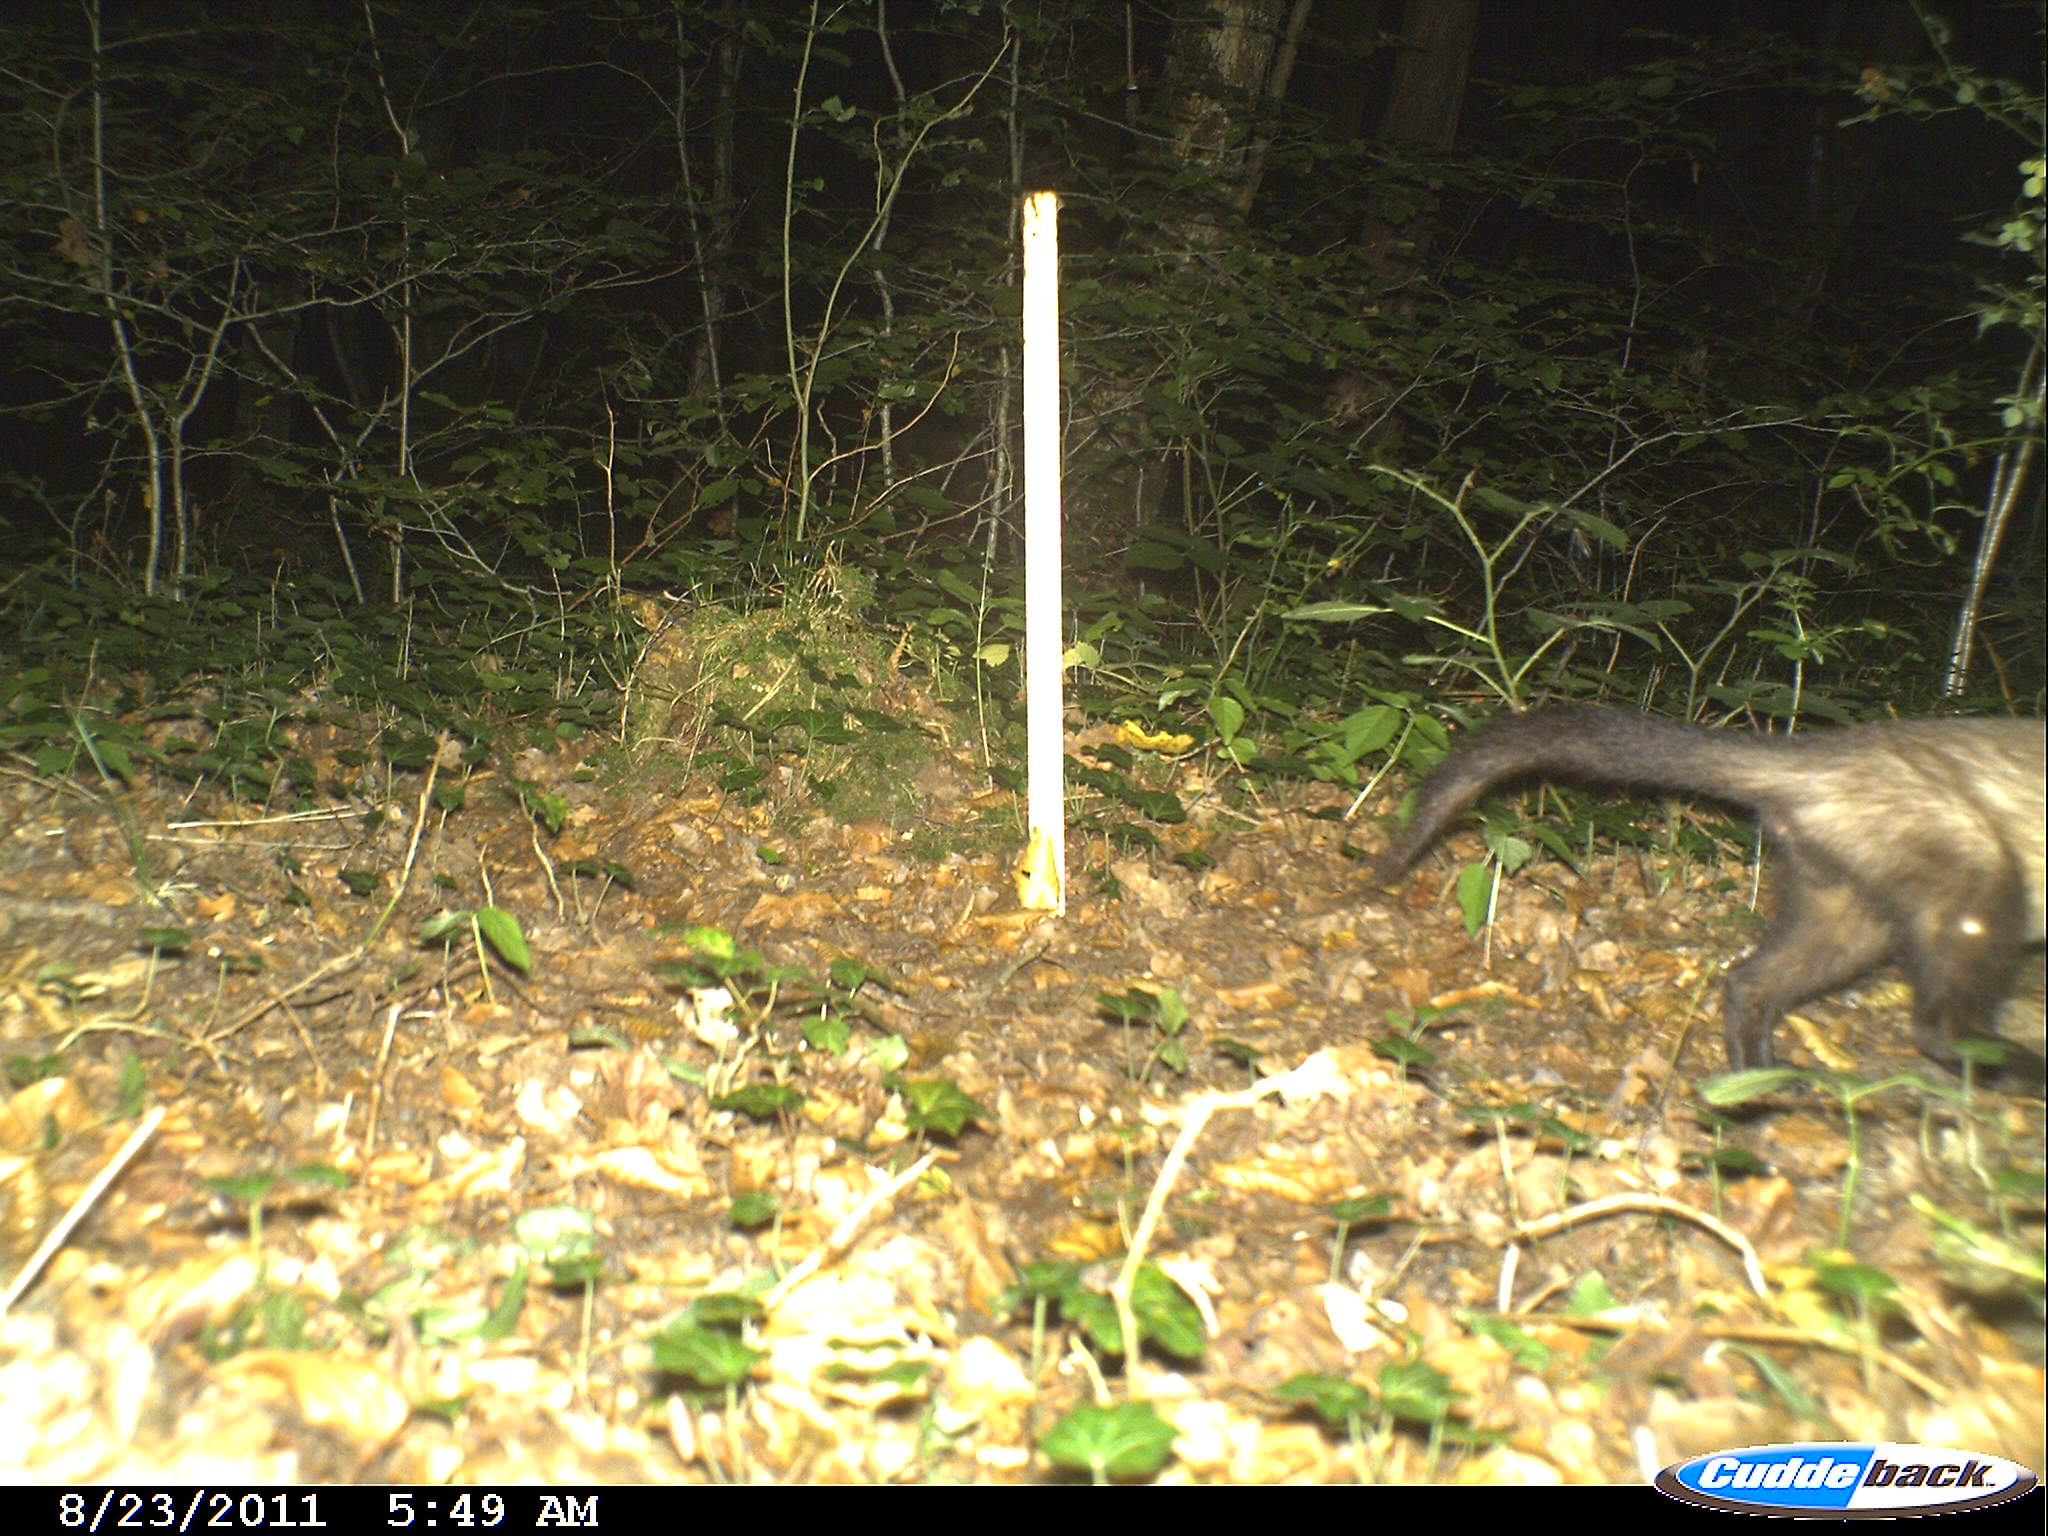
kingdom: Animalia
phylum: Chordata
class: Mammalia
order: Carnivora
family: Mustelidae
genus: Martes
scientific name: Martes
